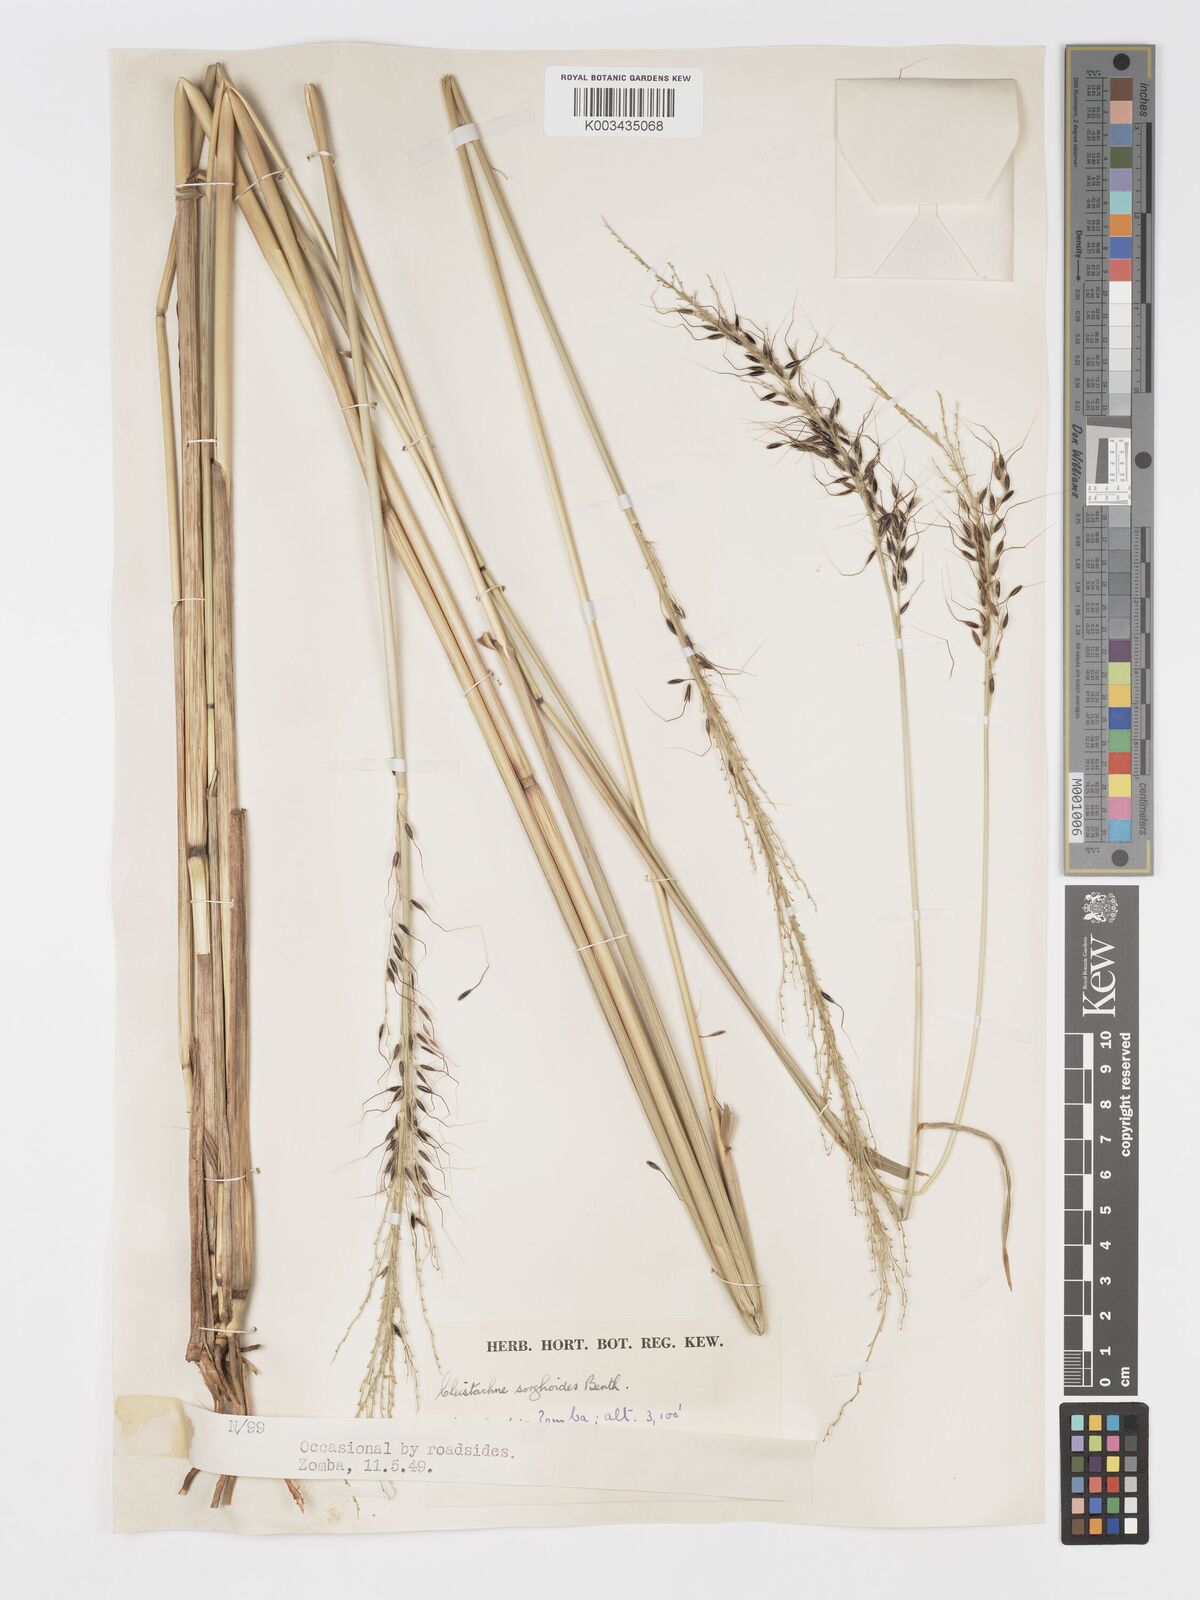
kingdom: Plantae
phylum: Tracheophyta
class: Liliopsida
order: Poales
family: Poaceae
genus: Cleistachne
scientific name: Cleistachne sorghoides
